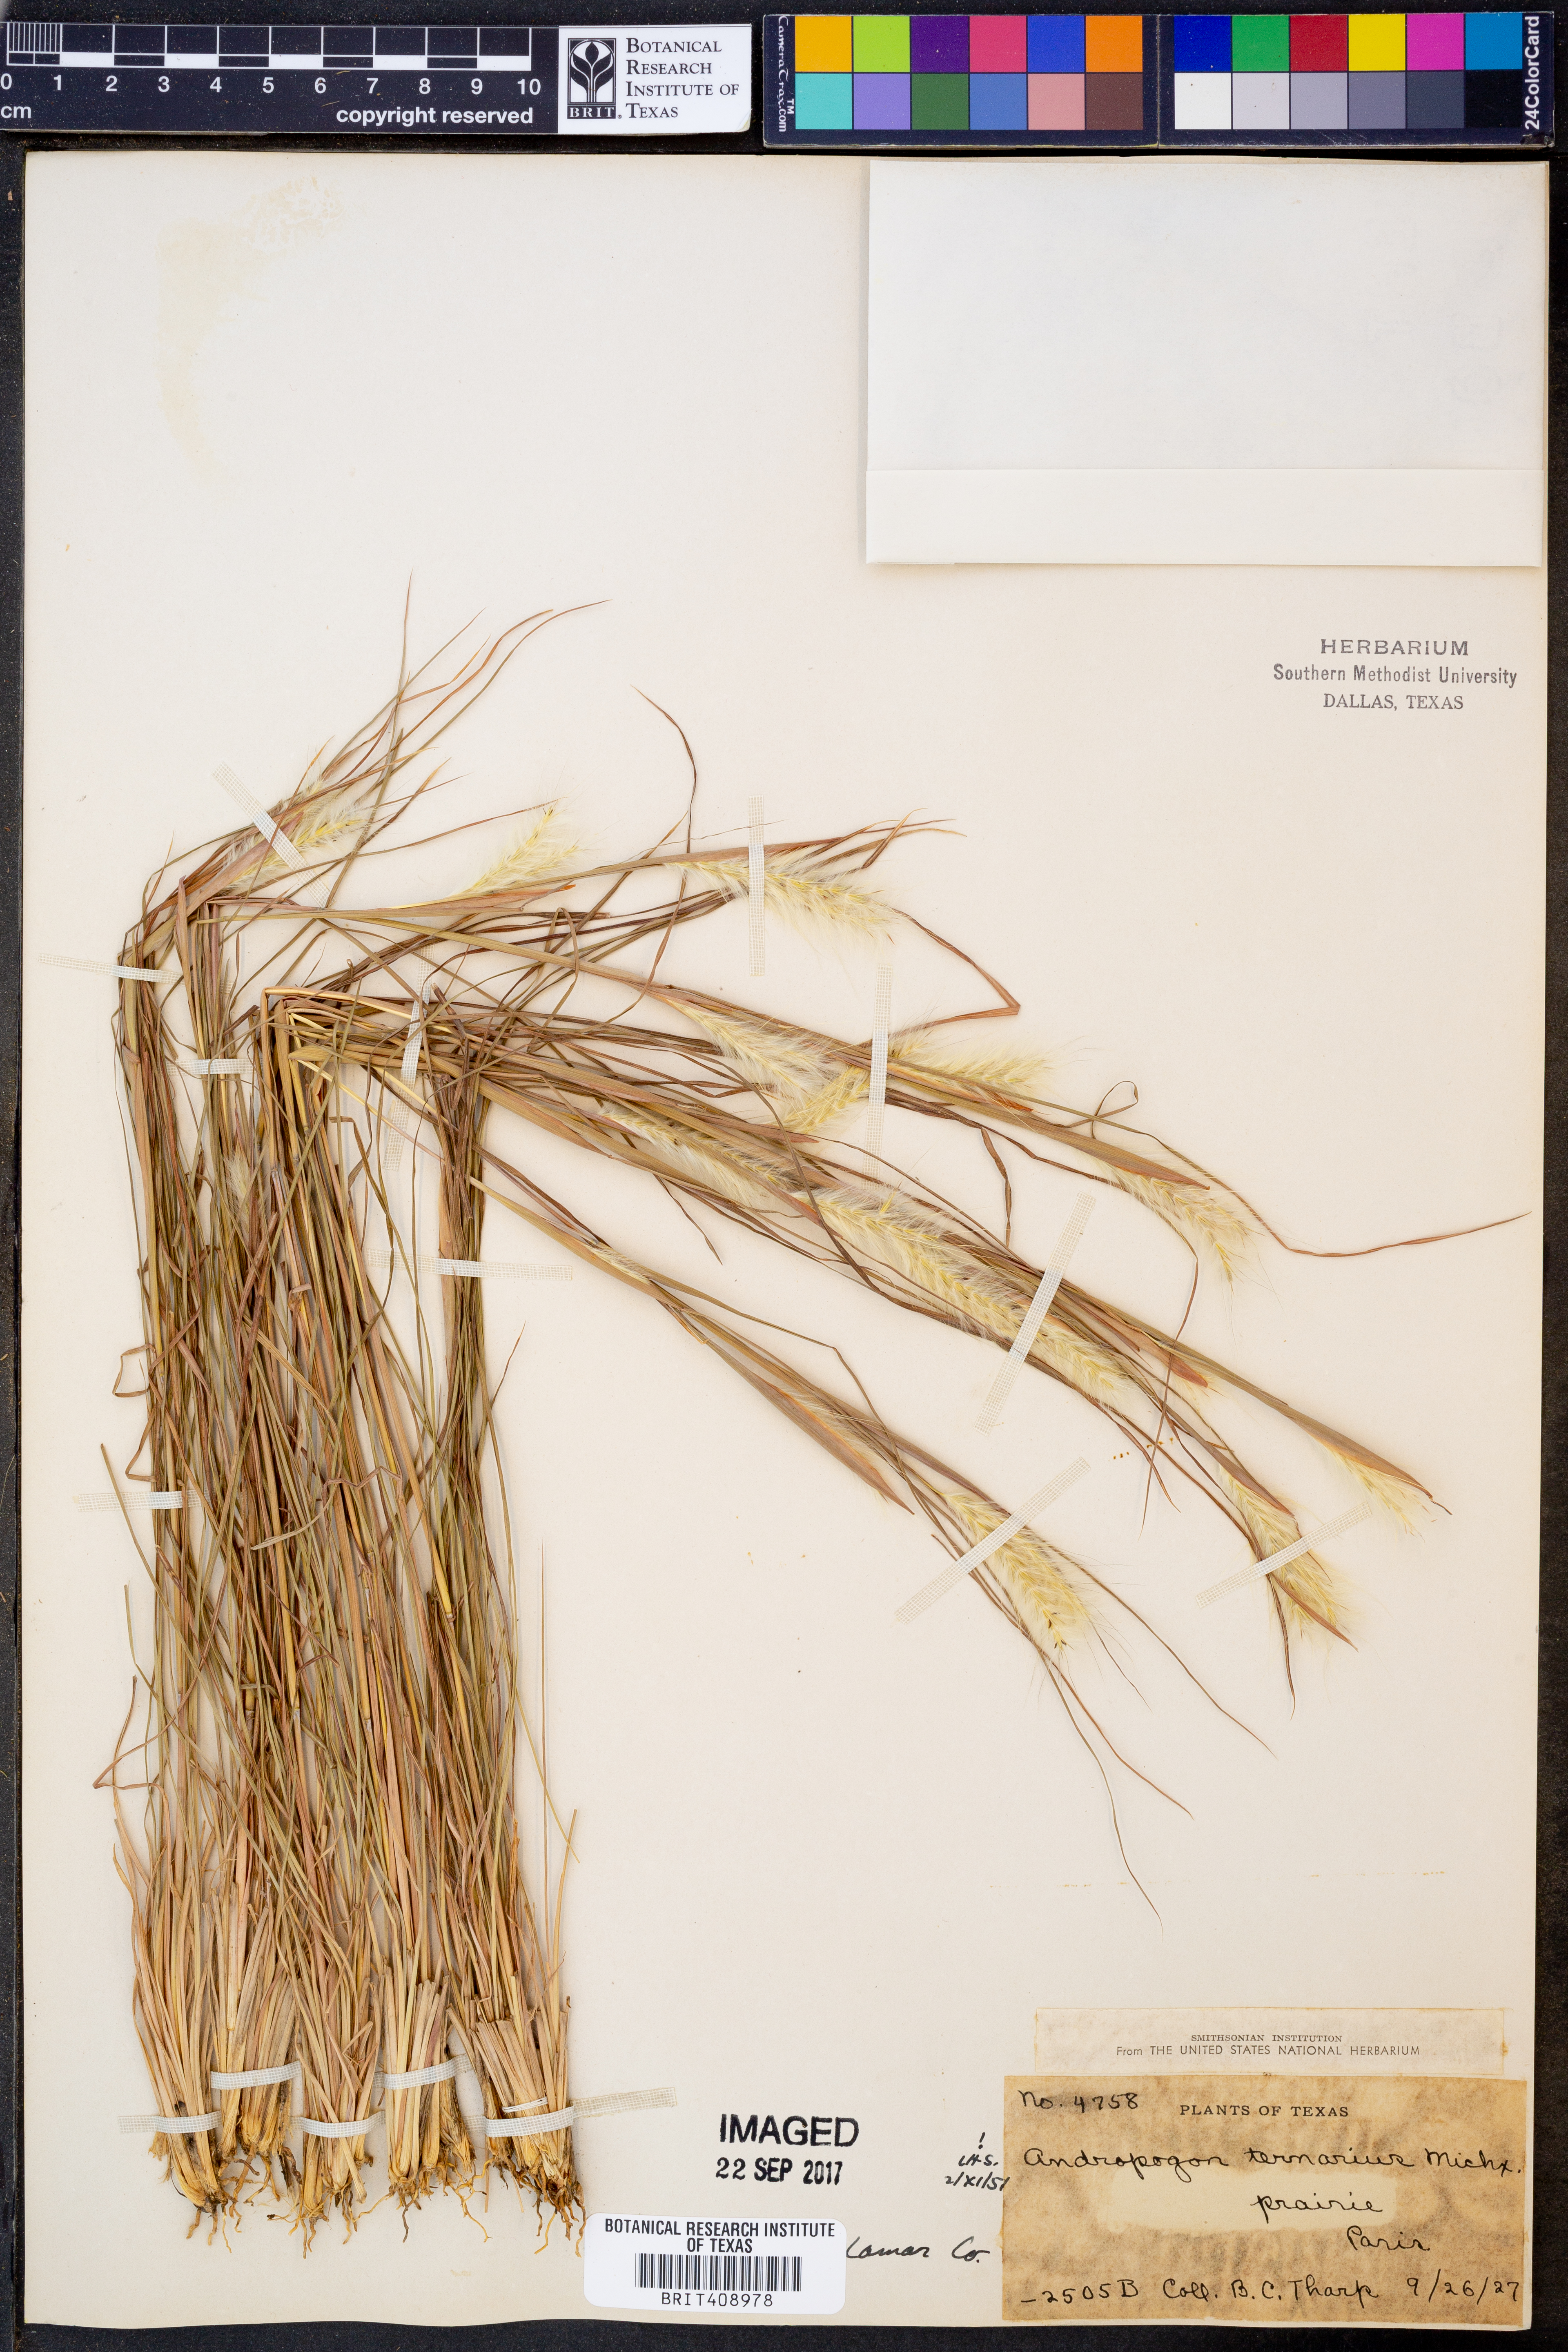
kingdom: Plantae
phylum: Tracheophyta
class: Liliopsida
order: Poales
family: Poaceae
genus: Andropogon
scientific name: Andropogon ternarius
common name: Split bluestem
